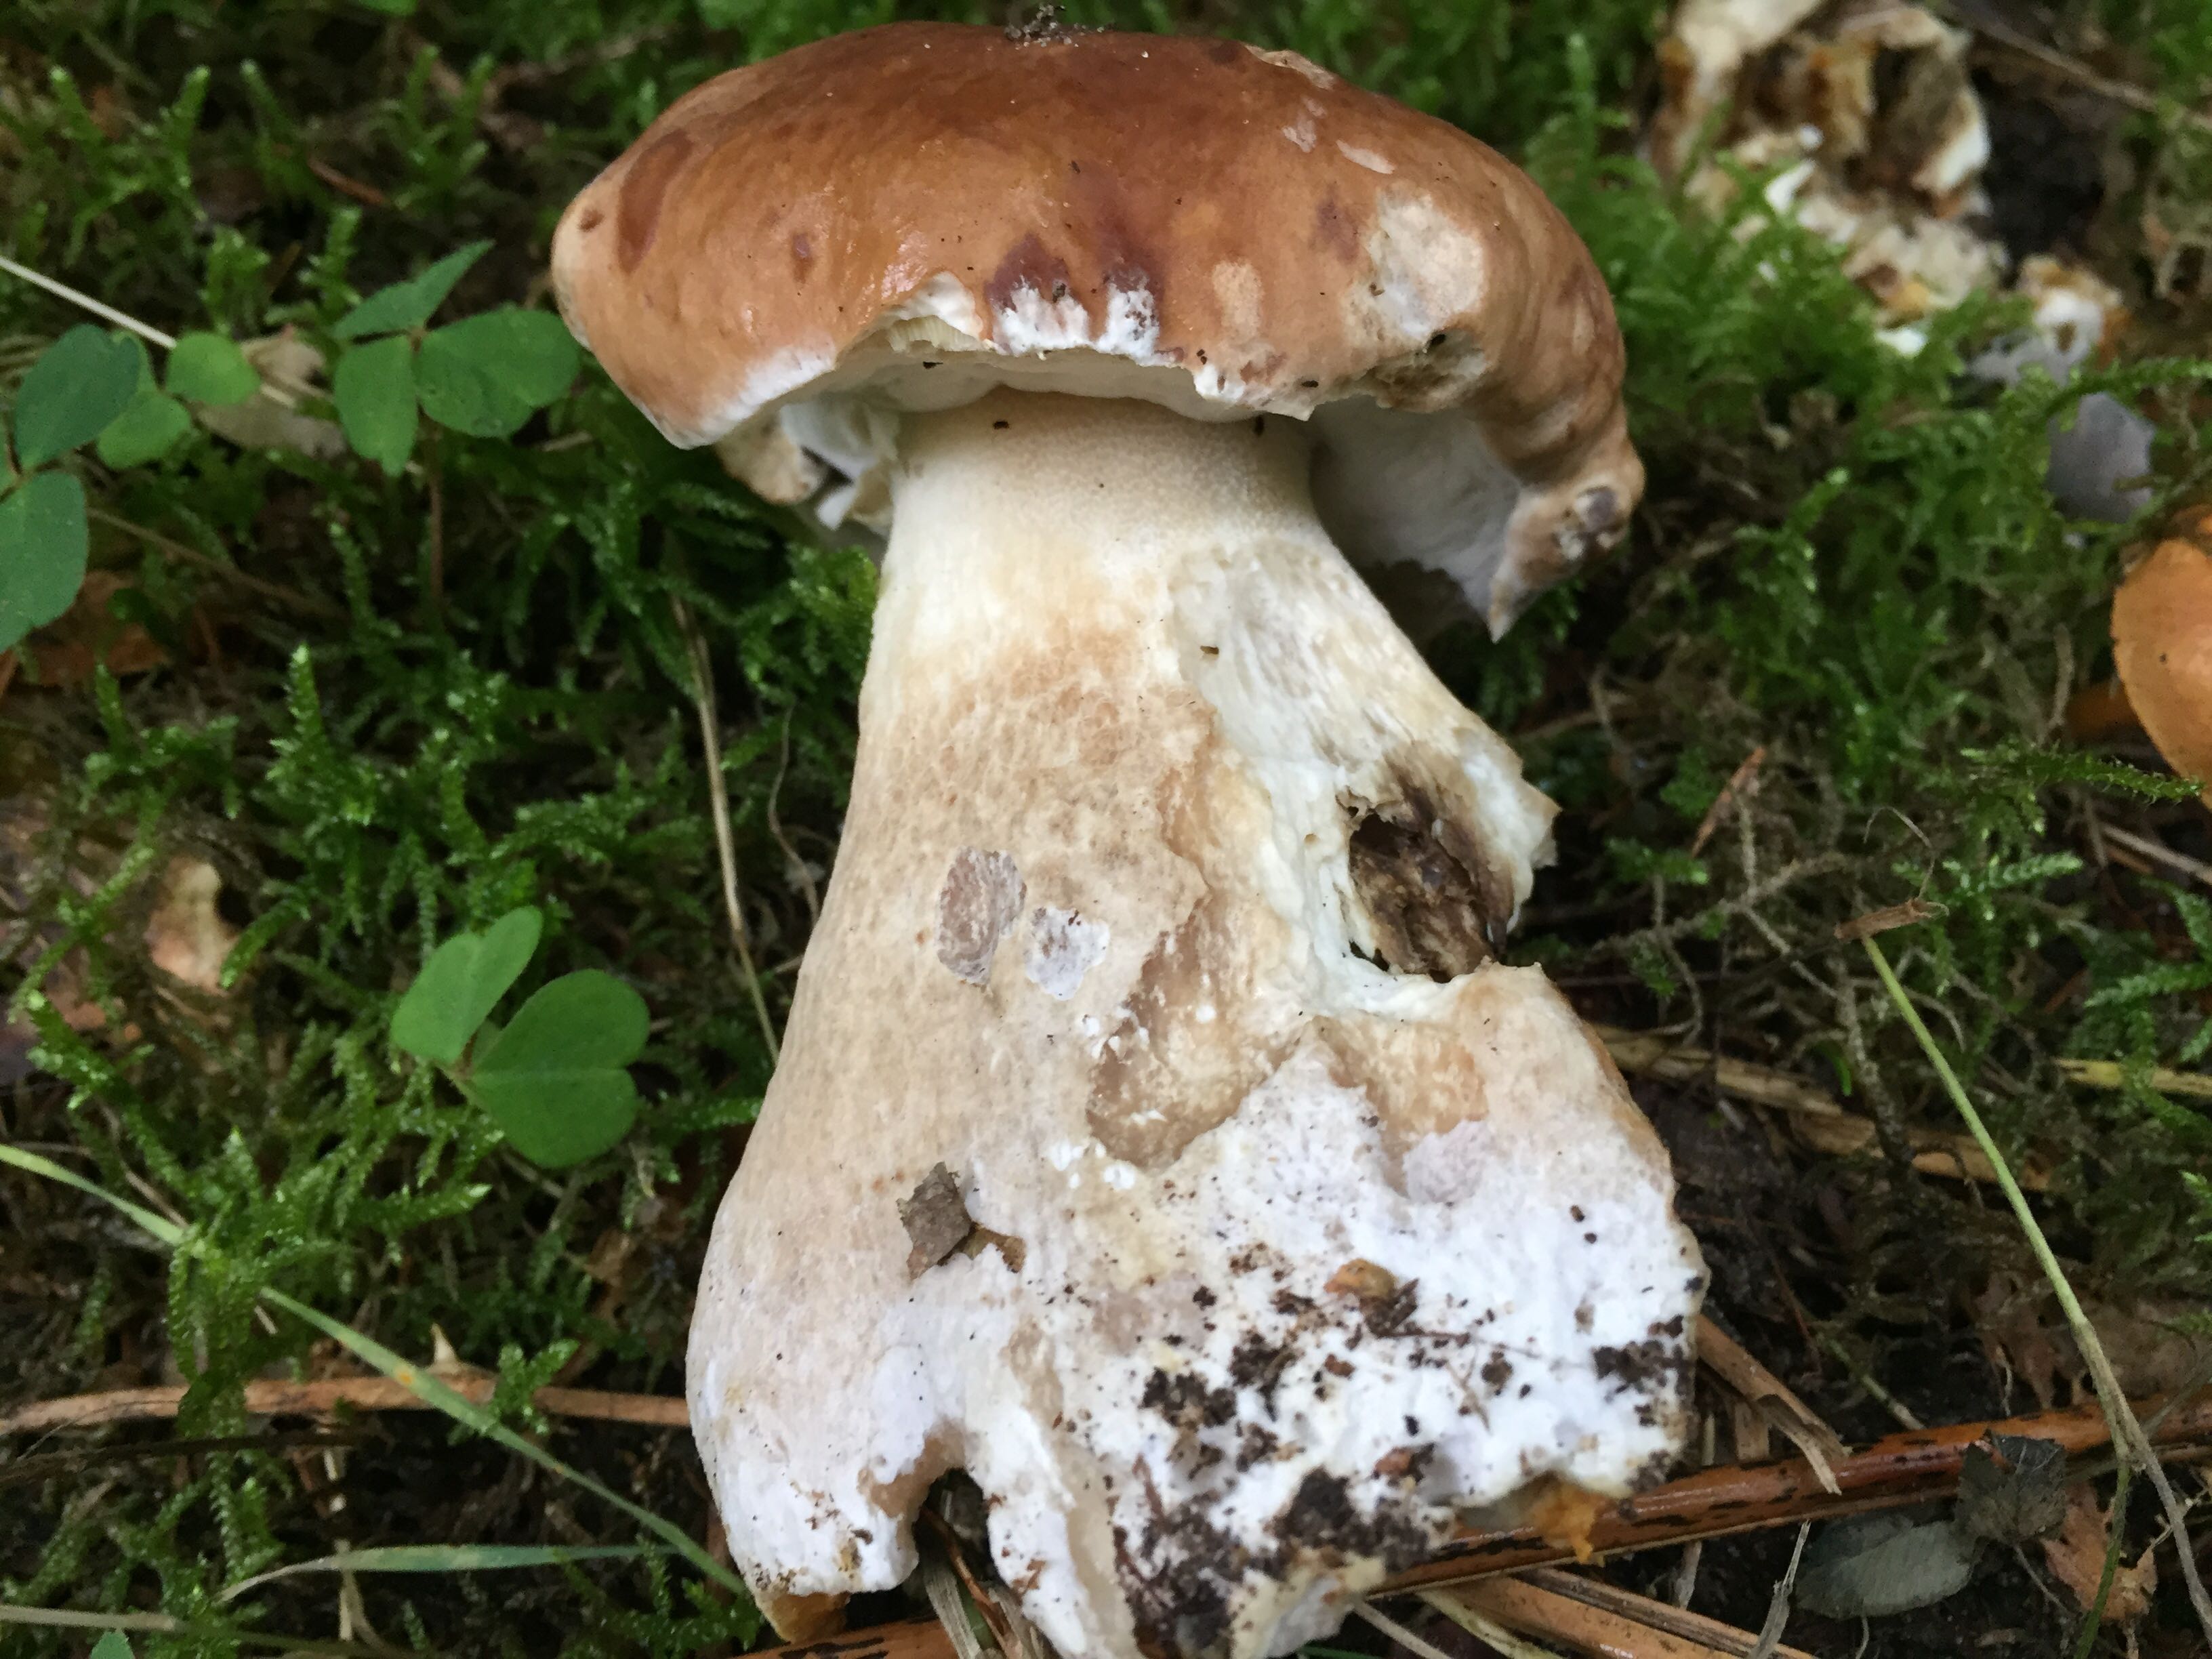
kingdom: Fungi
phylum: Basidiomycota
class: Agaricomycetes
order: Boletales
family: Boletaceae
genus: Boletus
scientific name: Boletus edulis
